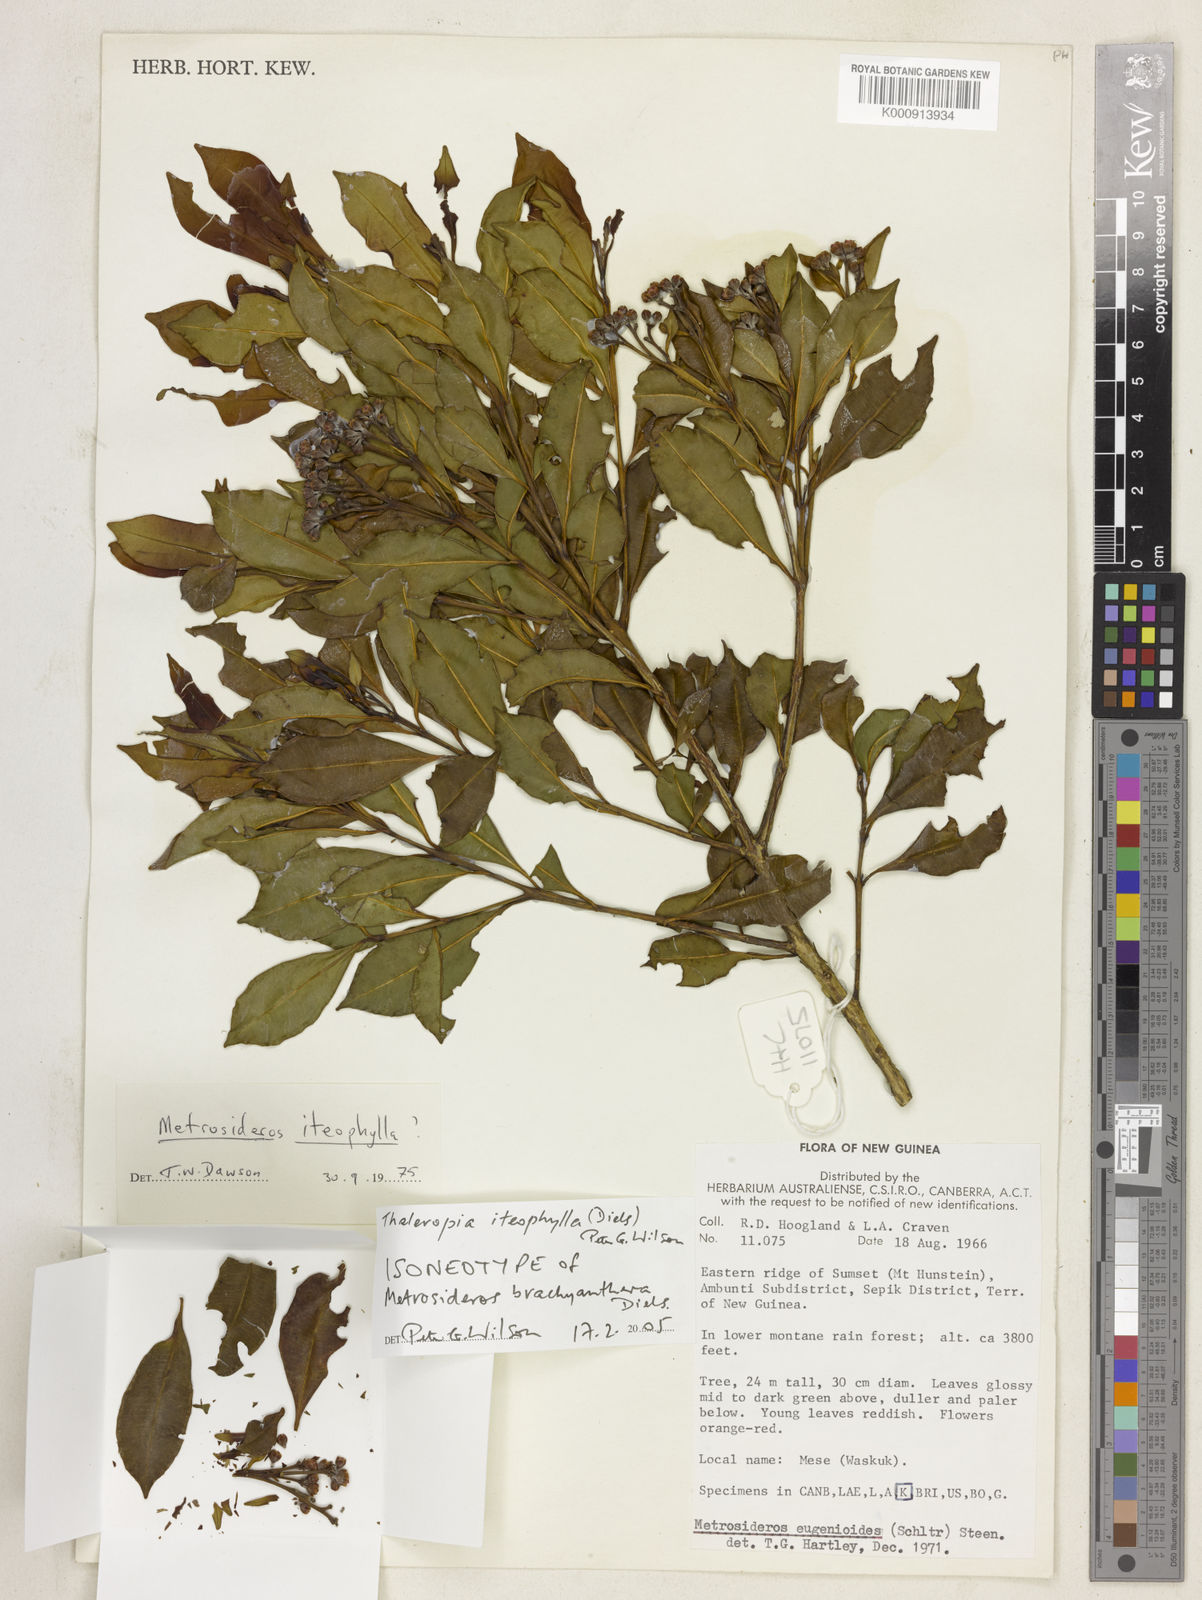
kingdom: Plantae
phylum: Tracheophyta
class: Magnoliopsida
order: Myrtales
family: Myrtaceae
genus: Thaleropia
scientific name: Thaleropia iteophylla
